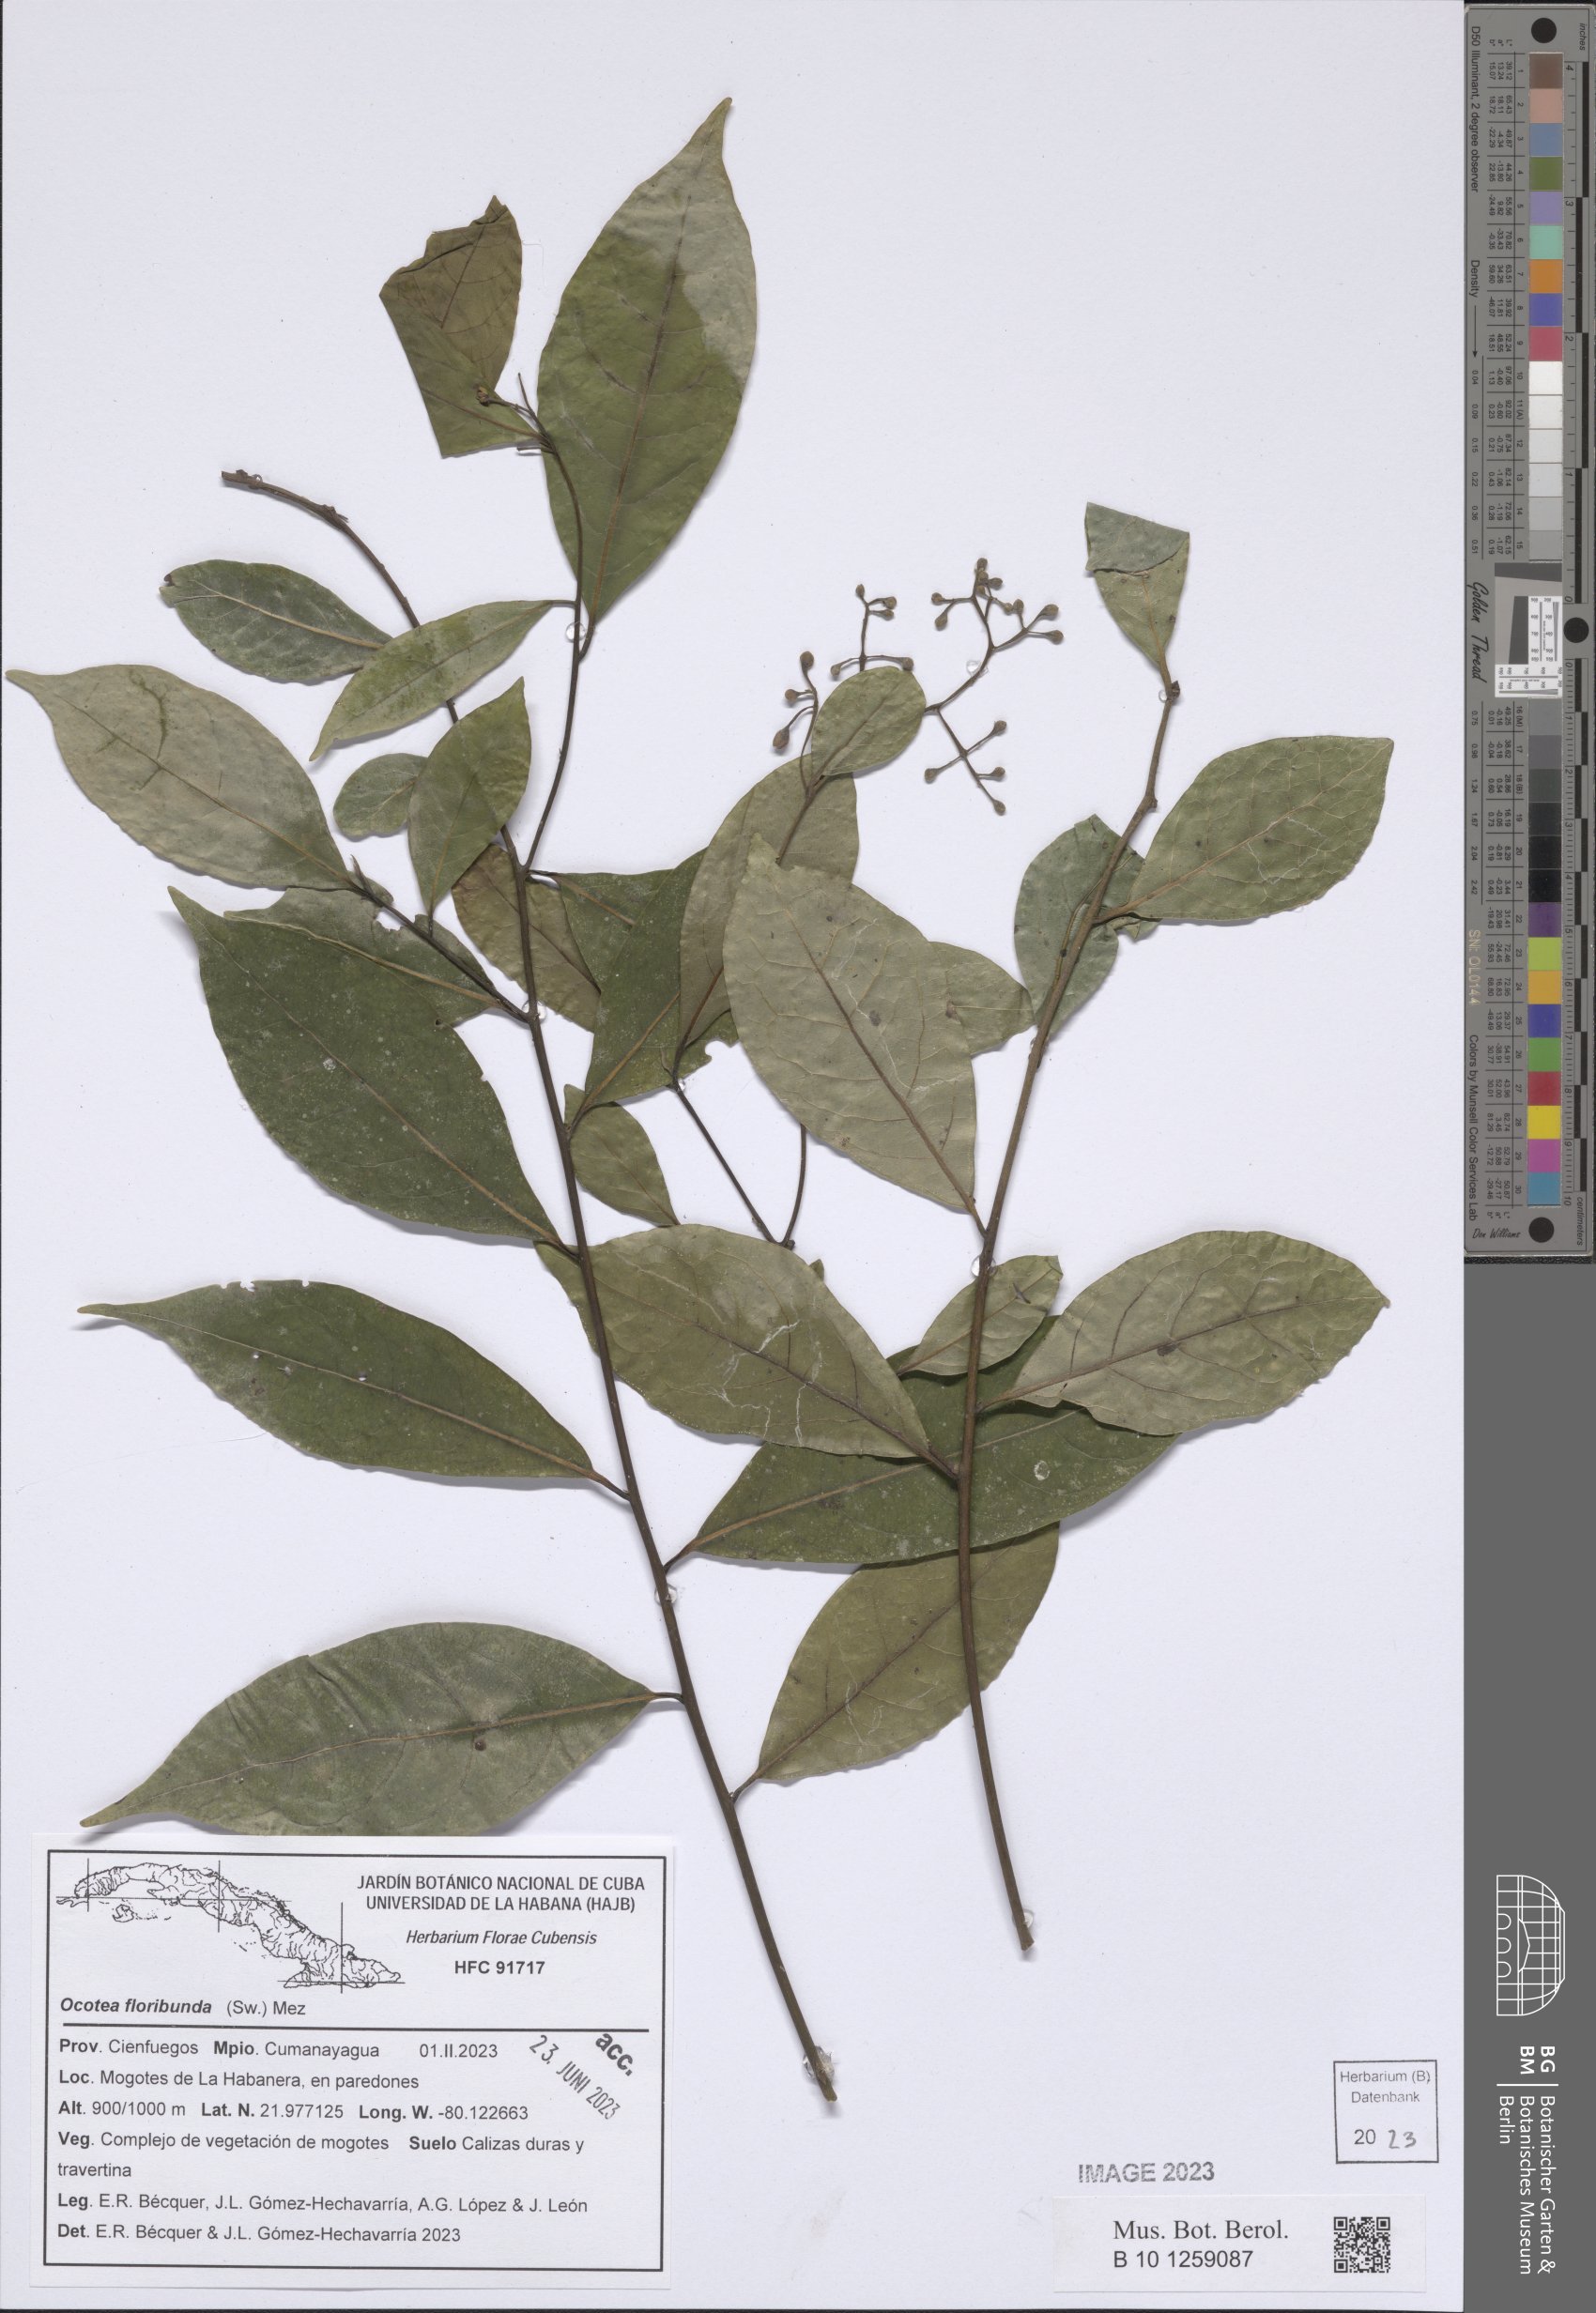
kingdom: Plantae
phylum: Tracheophyta
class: Magnoliopsida
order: Laurales
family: Lauraceae
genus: Ocotea
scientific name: Ocotea floribunda
